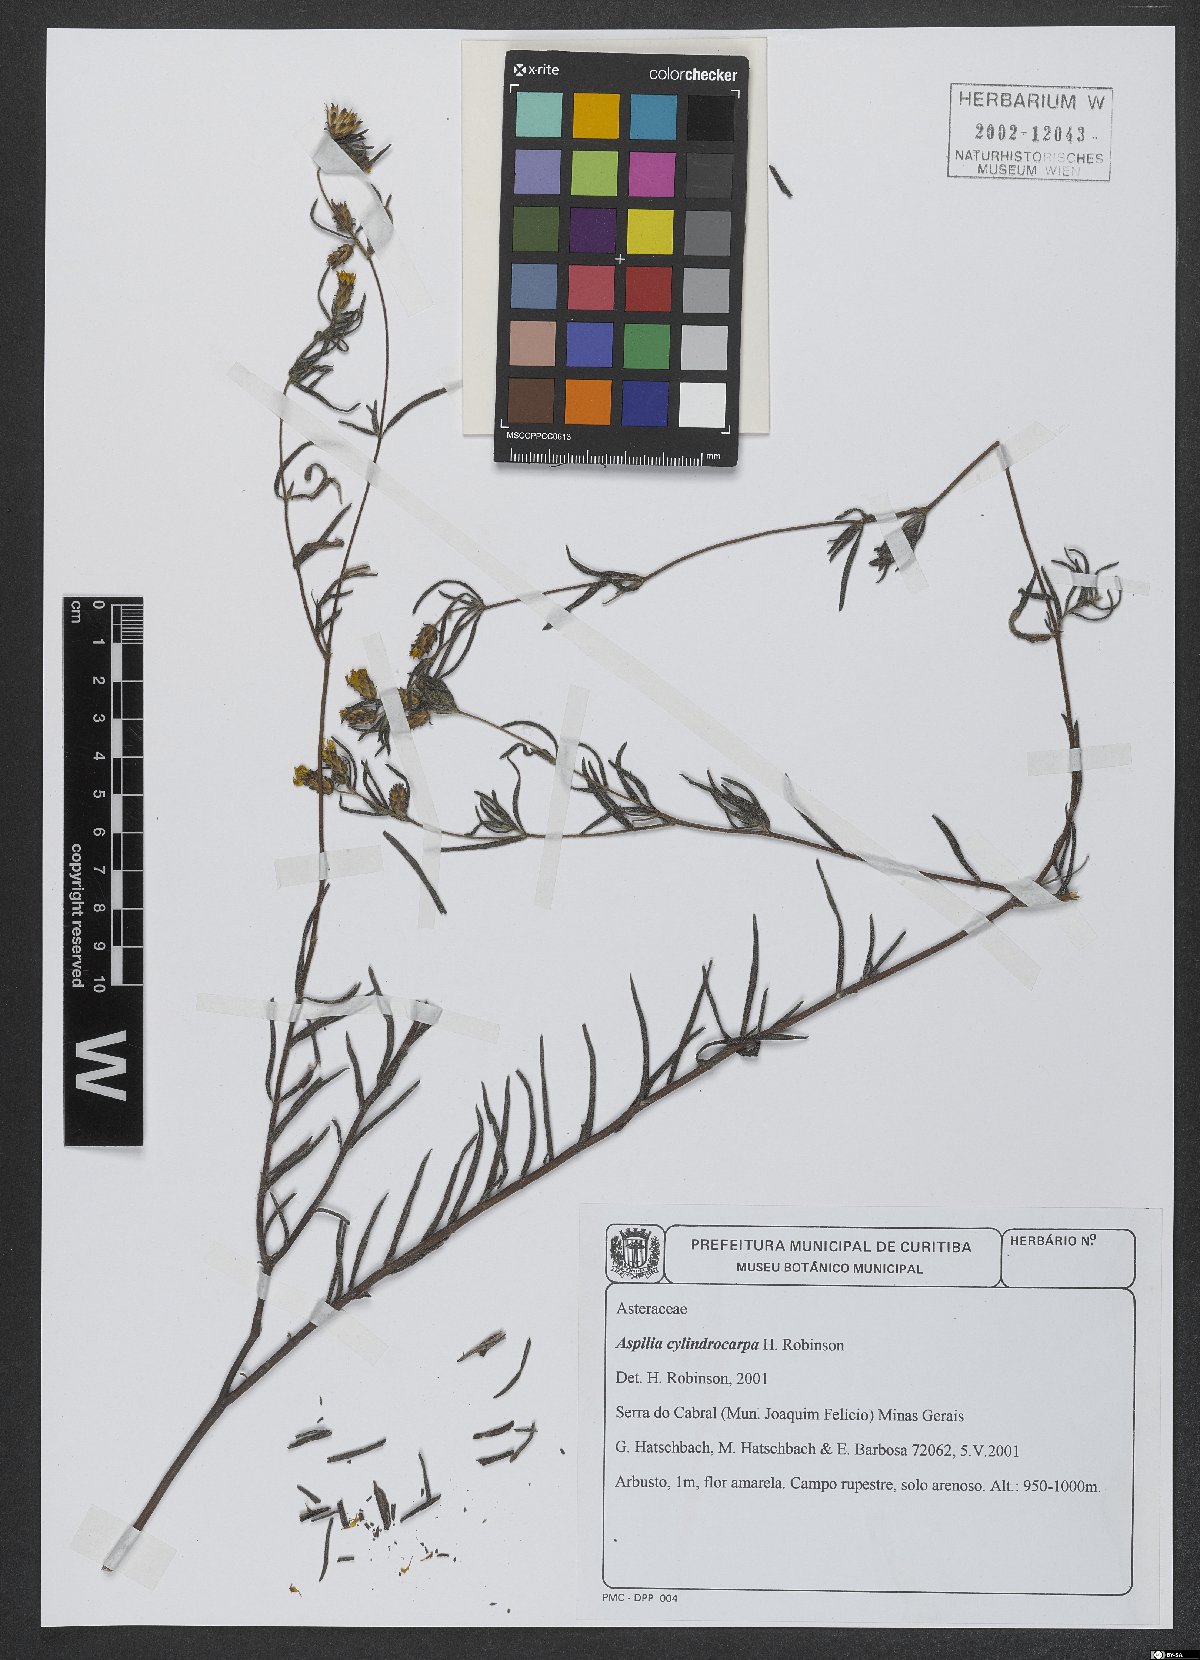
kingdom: Plantae
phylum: Tracheophyta
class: Magnoliopsida
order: Asterales
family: Asteraceae
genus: Wedelia
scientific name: Wedelia cylindrocephala
